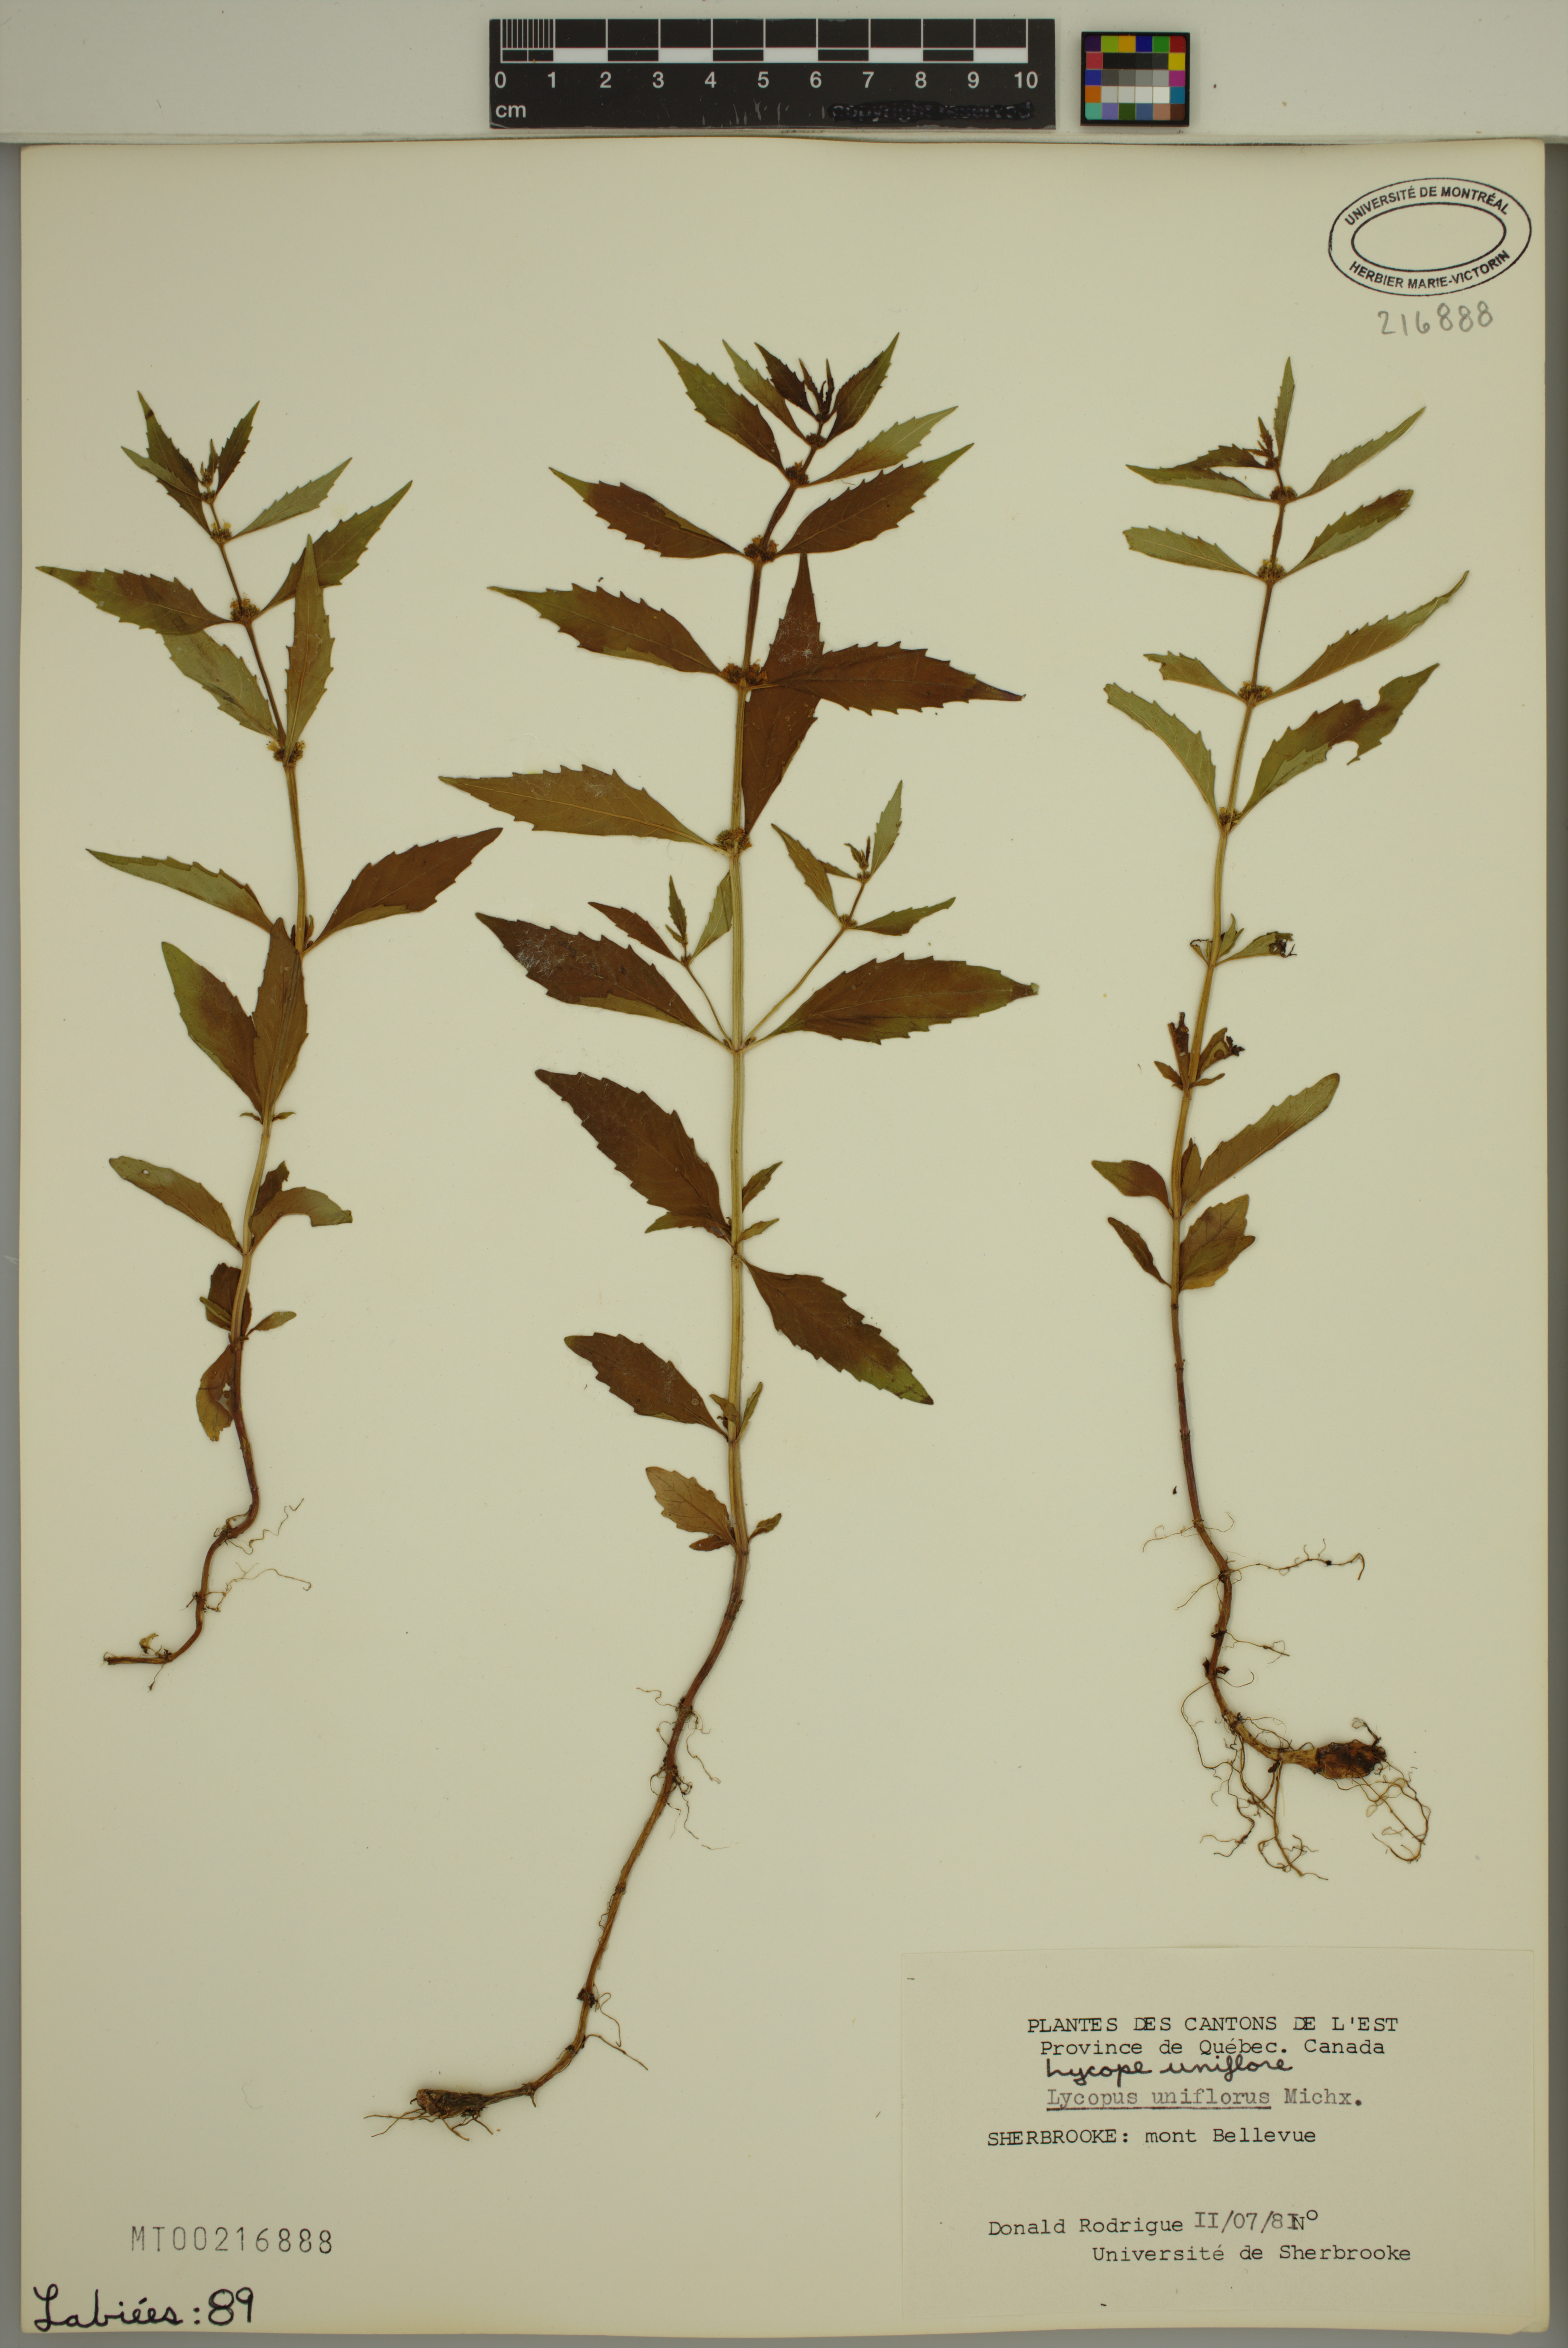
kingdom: Plantae
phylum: Tracheophyta
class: Magnoliopsida
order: Lamiales
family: Lamiaceae
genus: Lycopus
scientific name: Lycopus uniflorus
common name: Northern bugleweed
